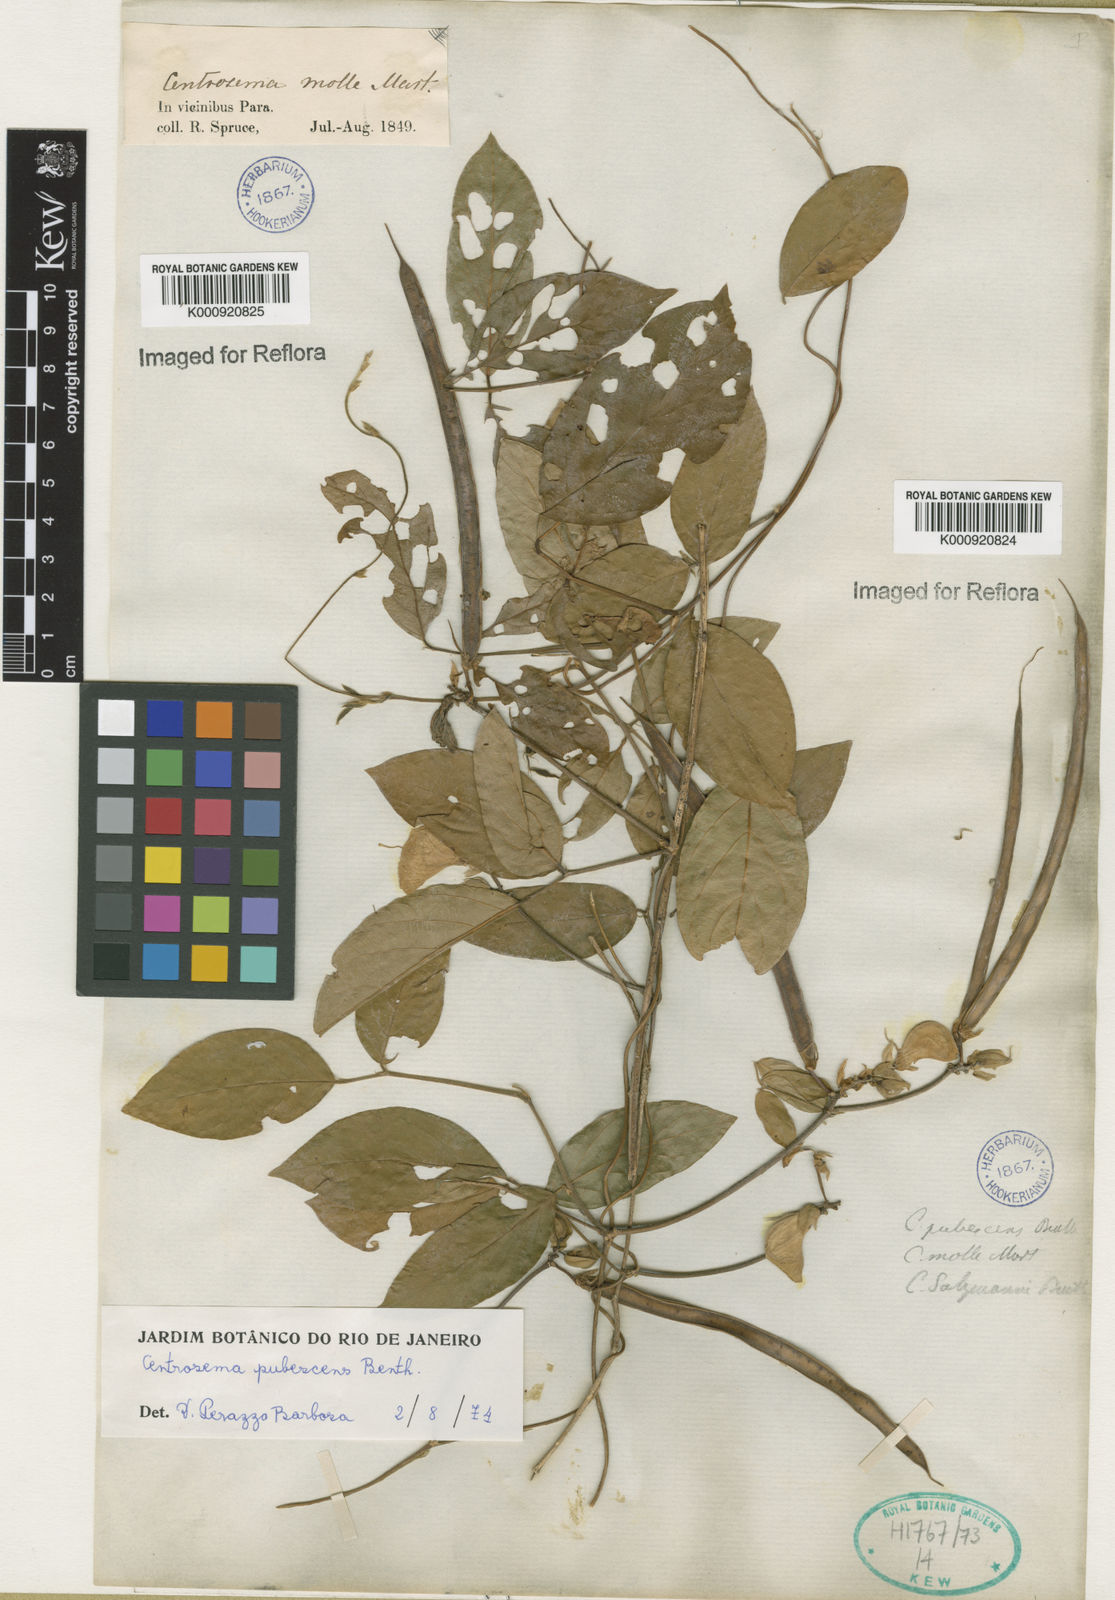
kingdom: Plantae
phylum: Tracheophyta
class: Magnoliopsida
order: Fabales
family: Fabaceae
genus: Centrosema
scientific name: Centrosema pubescens
